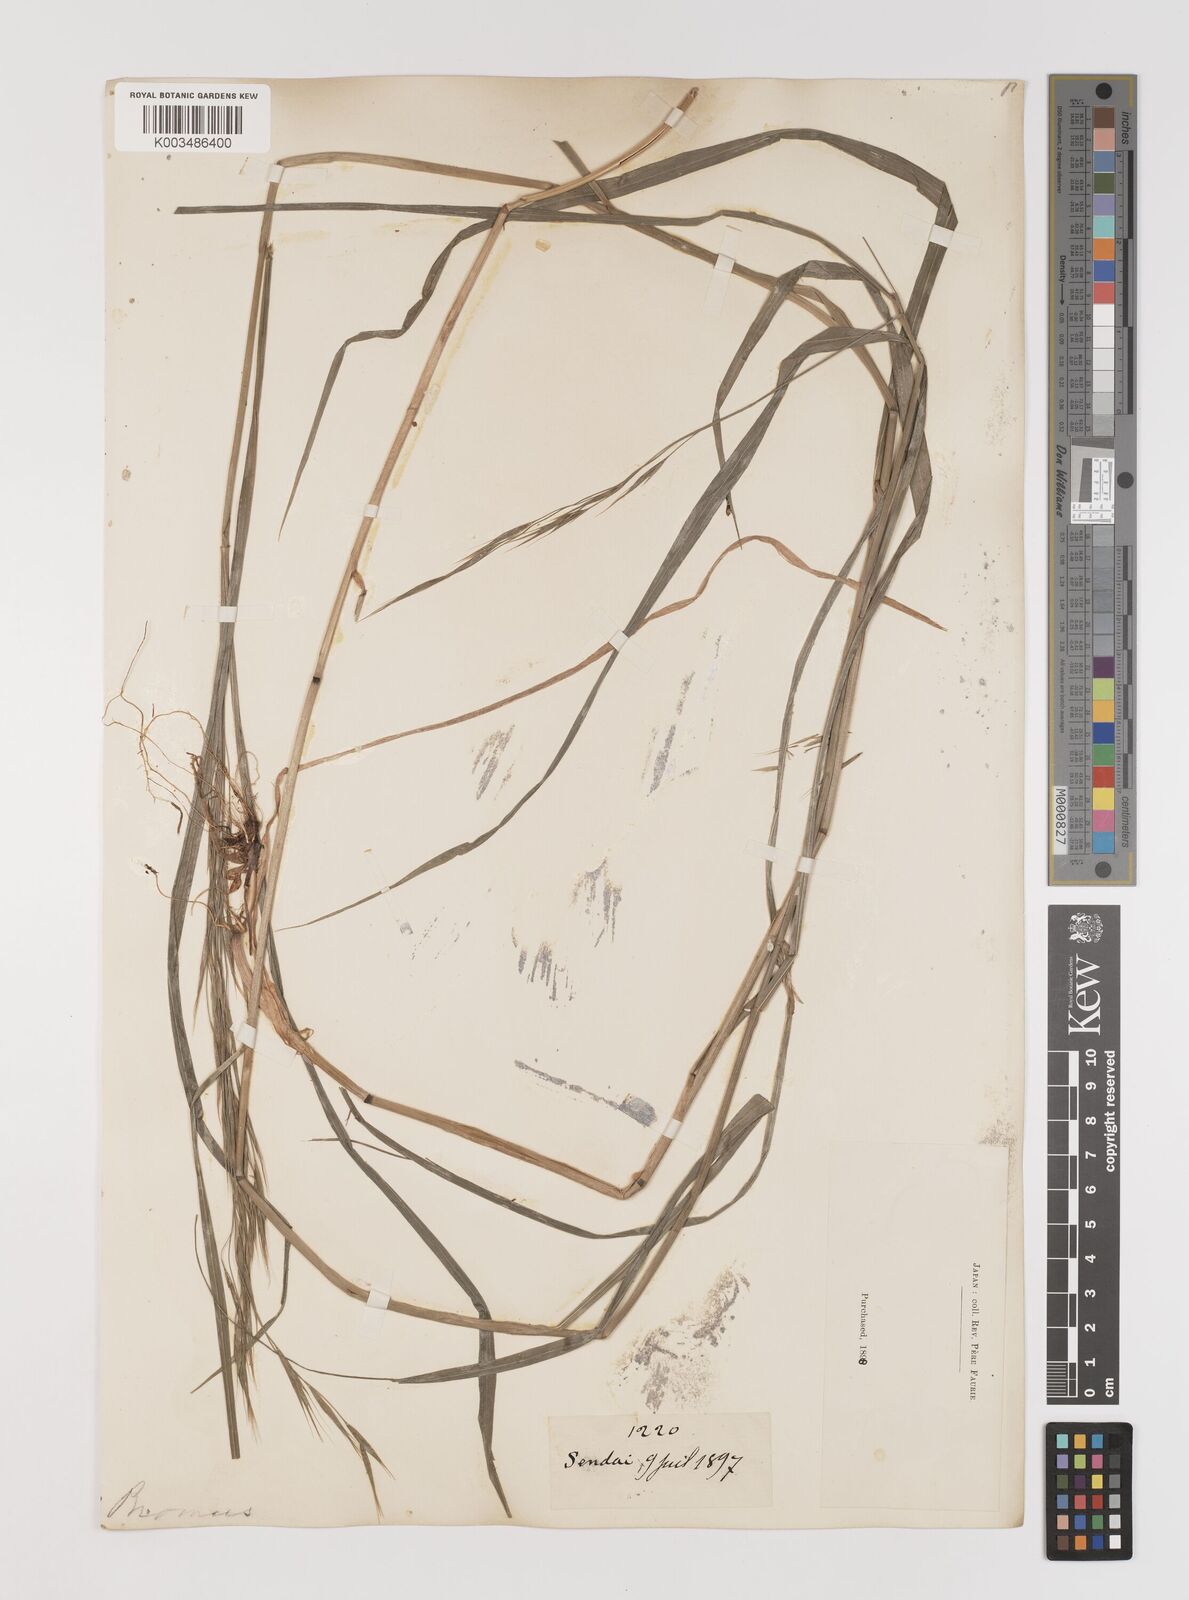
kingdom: Plantae
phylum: Tracheophyta
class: Liliopsida
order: Poales
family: Poaceae
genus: Bromus
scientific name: Bromus
